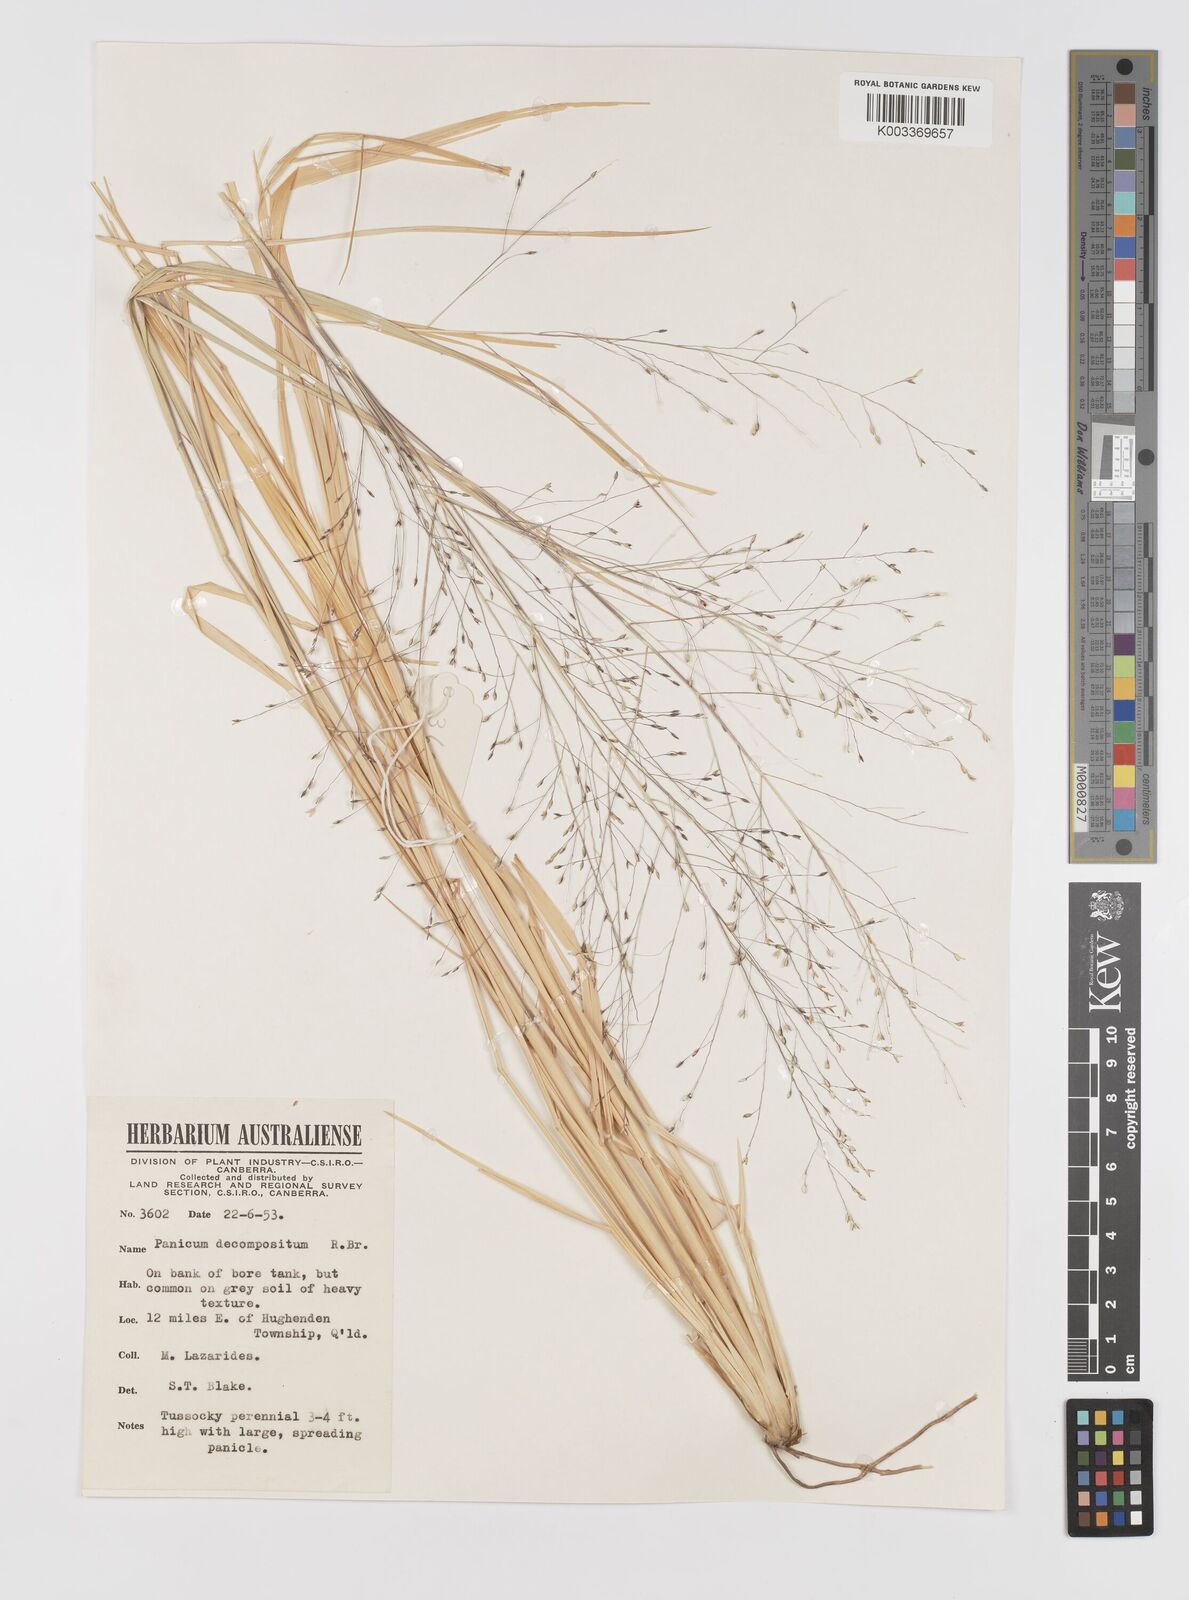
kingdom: Plantae
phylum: Tracheophyta
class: Liliopsida
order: Poales
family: Poaceae
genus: Panicum
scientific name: Panicum decompositum
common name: Australian millet
